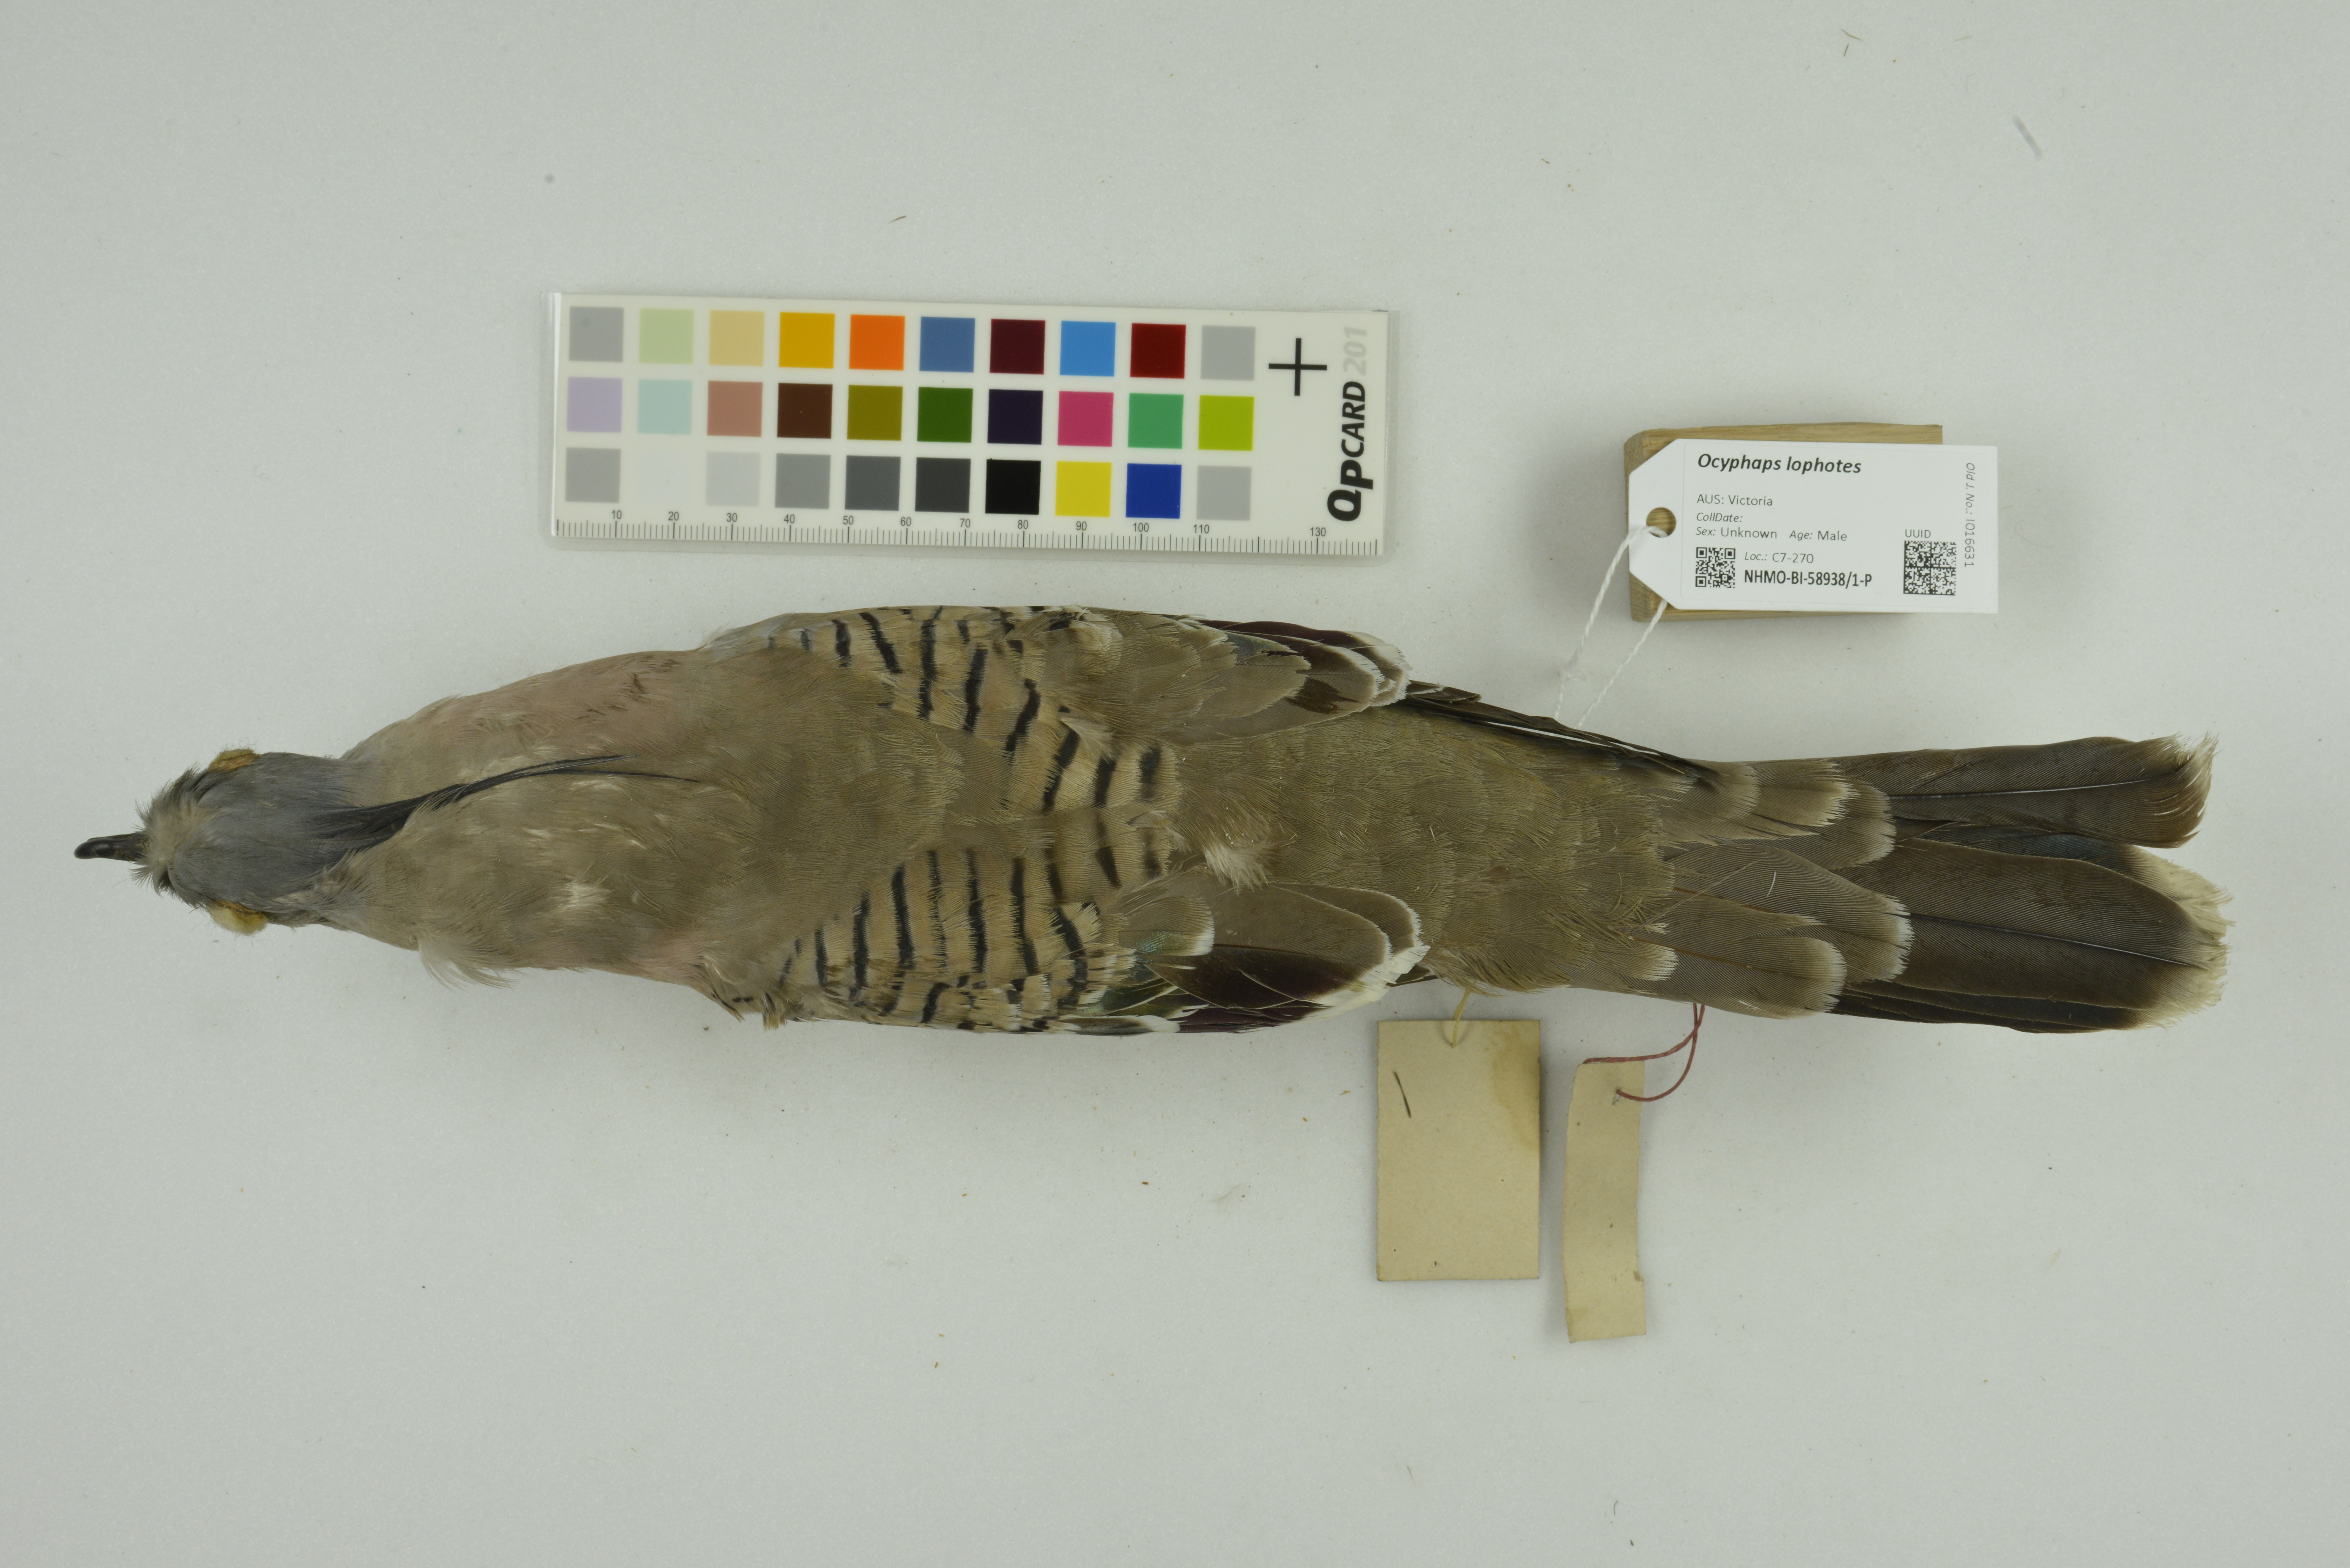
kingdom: Animalia
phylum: Chordata
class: Aves
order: Columbiformes
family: Columbidae
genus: Ocyphaps
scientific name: Ocyphaps lophotes
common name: Crested pigeon
